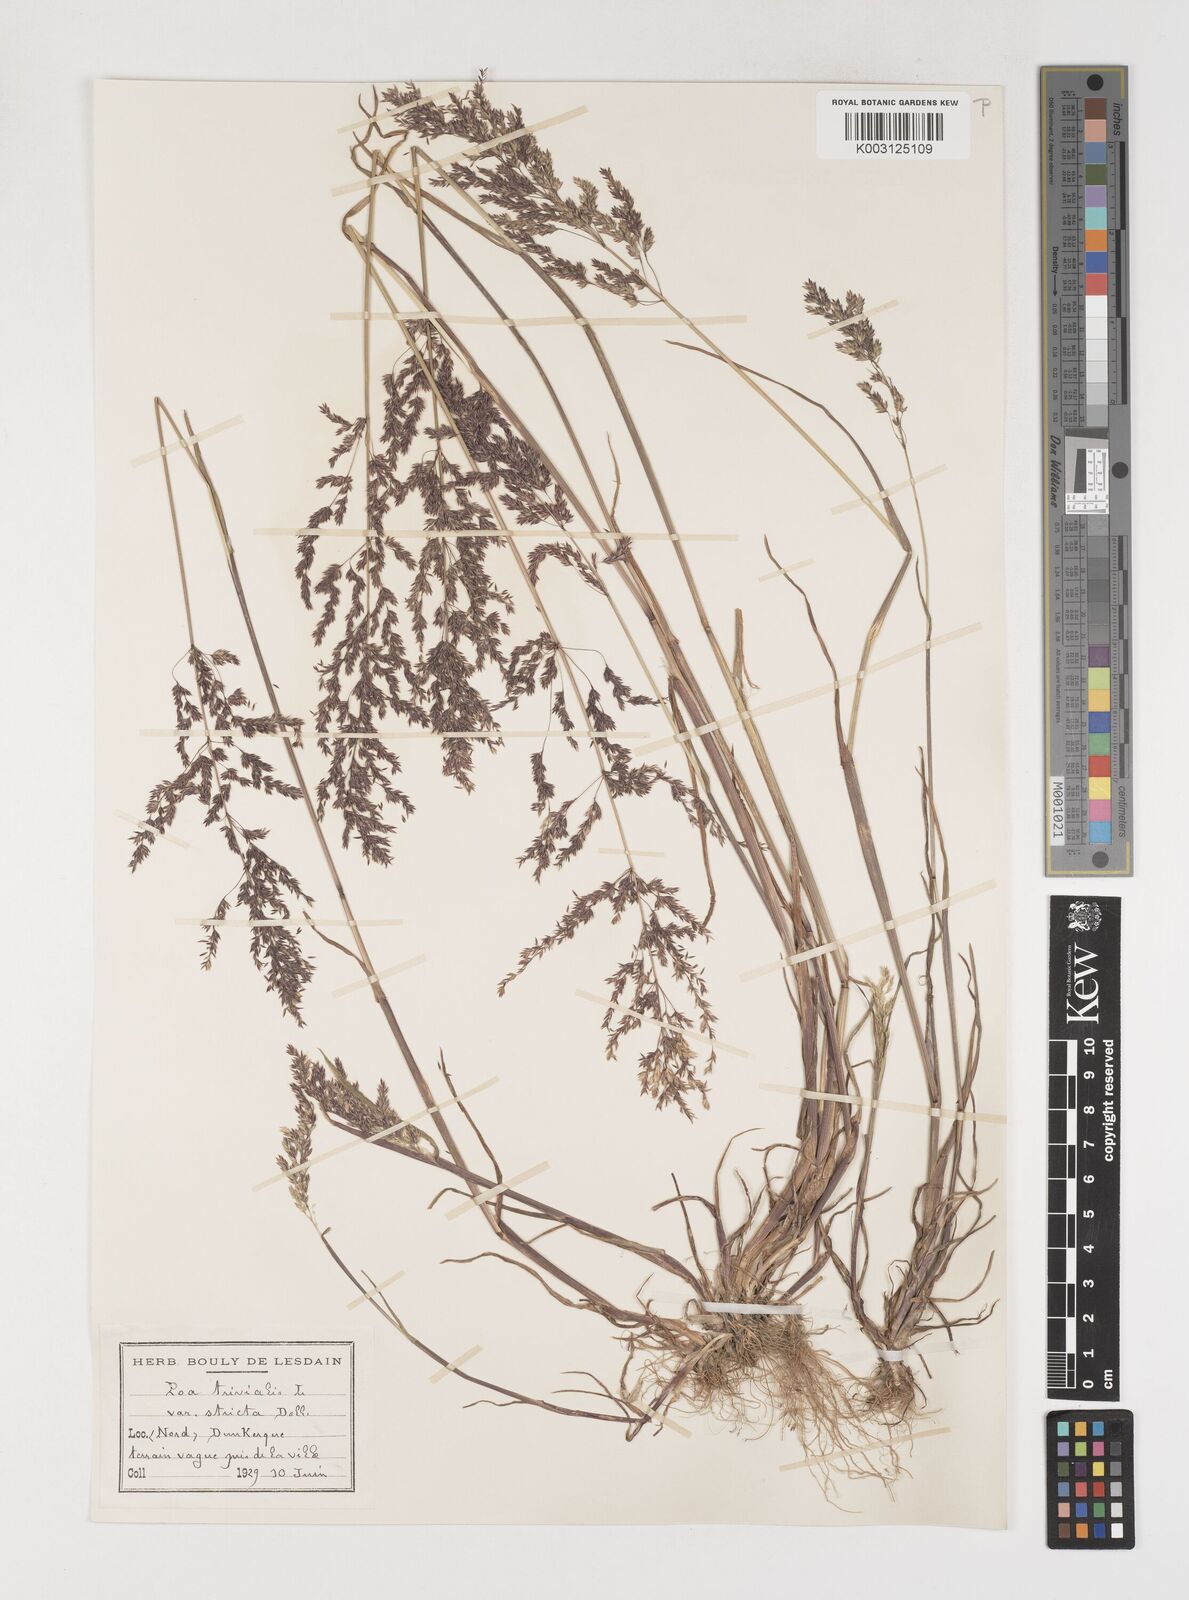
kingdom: Plantae
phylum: Tracheophyta
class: Liliopsida
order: Poales
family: Poaceae
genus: Poa
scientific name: Poa trivialis
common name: Rough bluegrass
